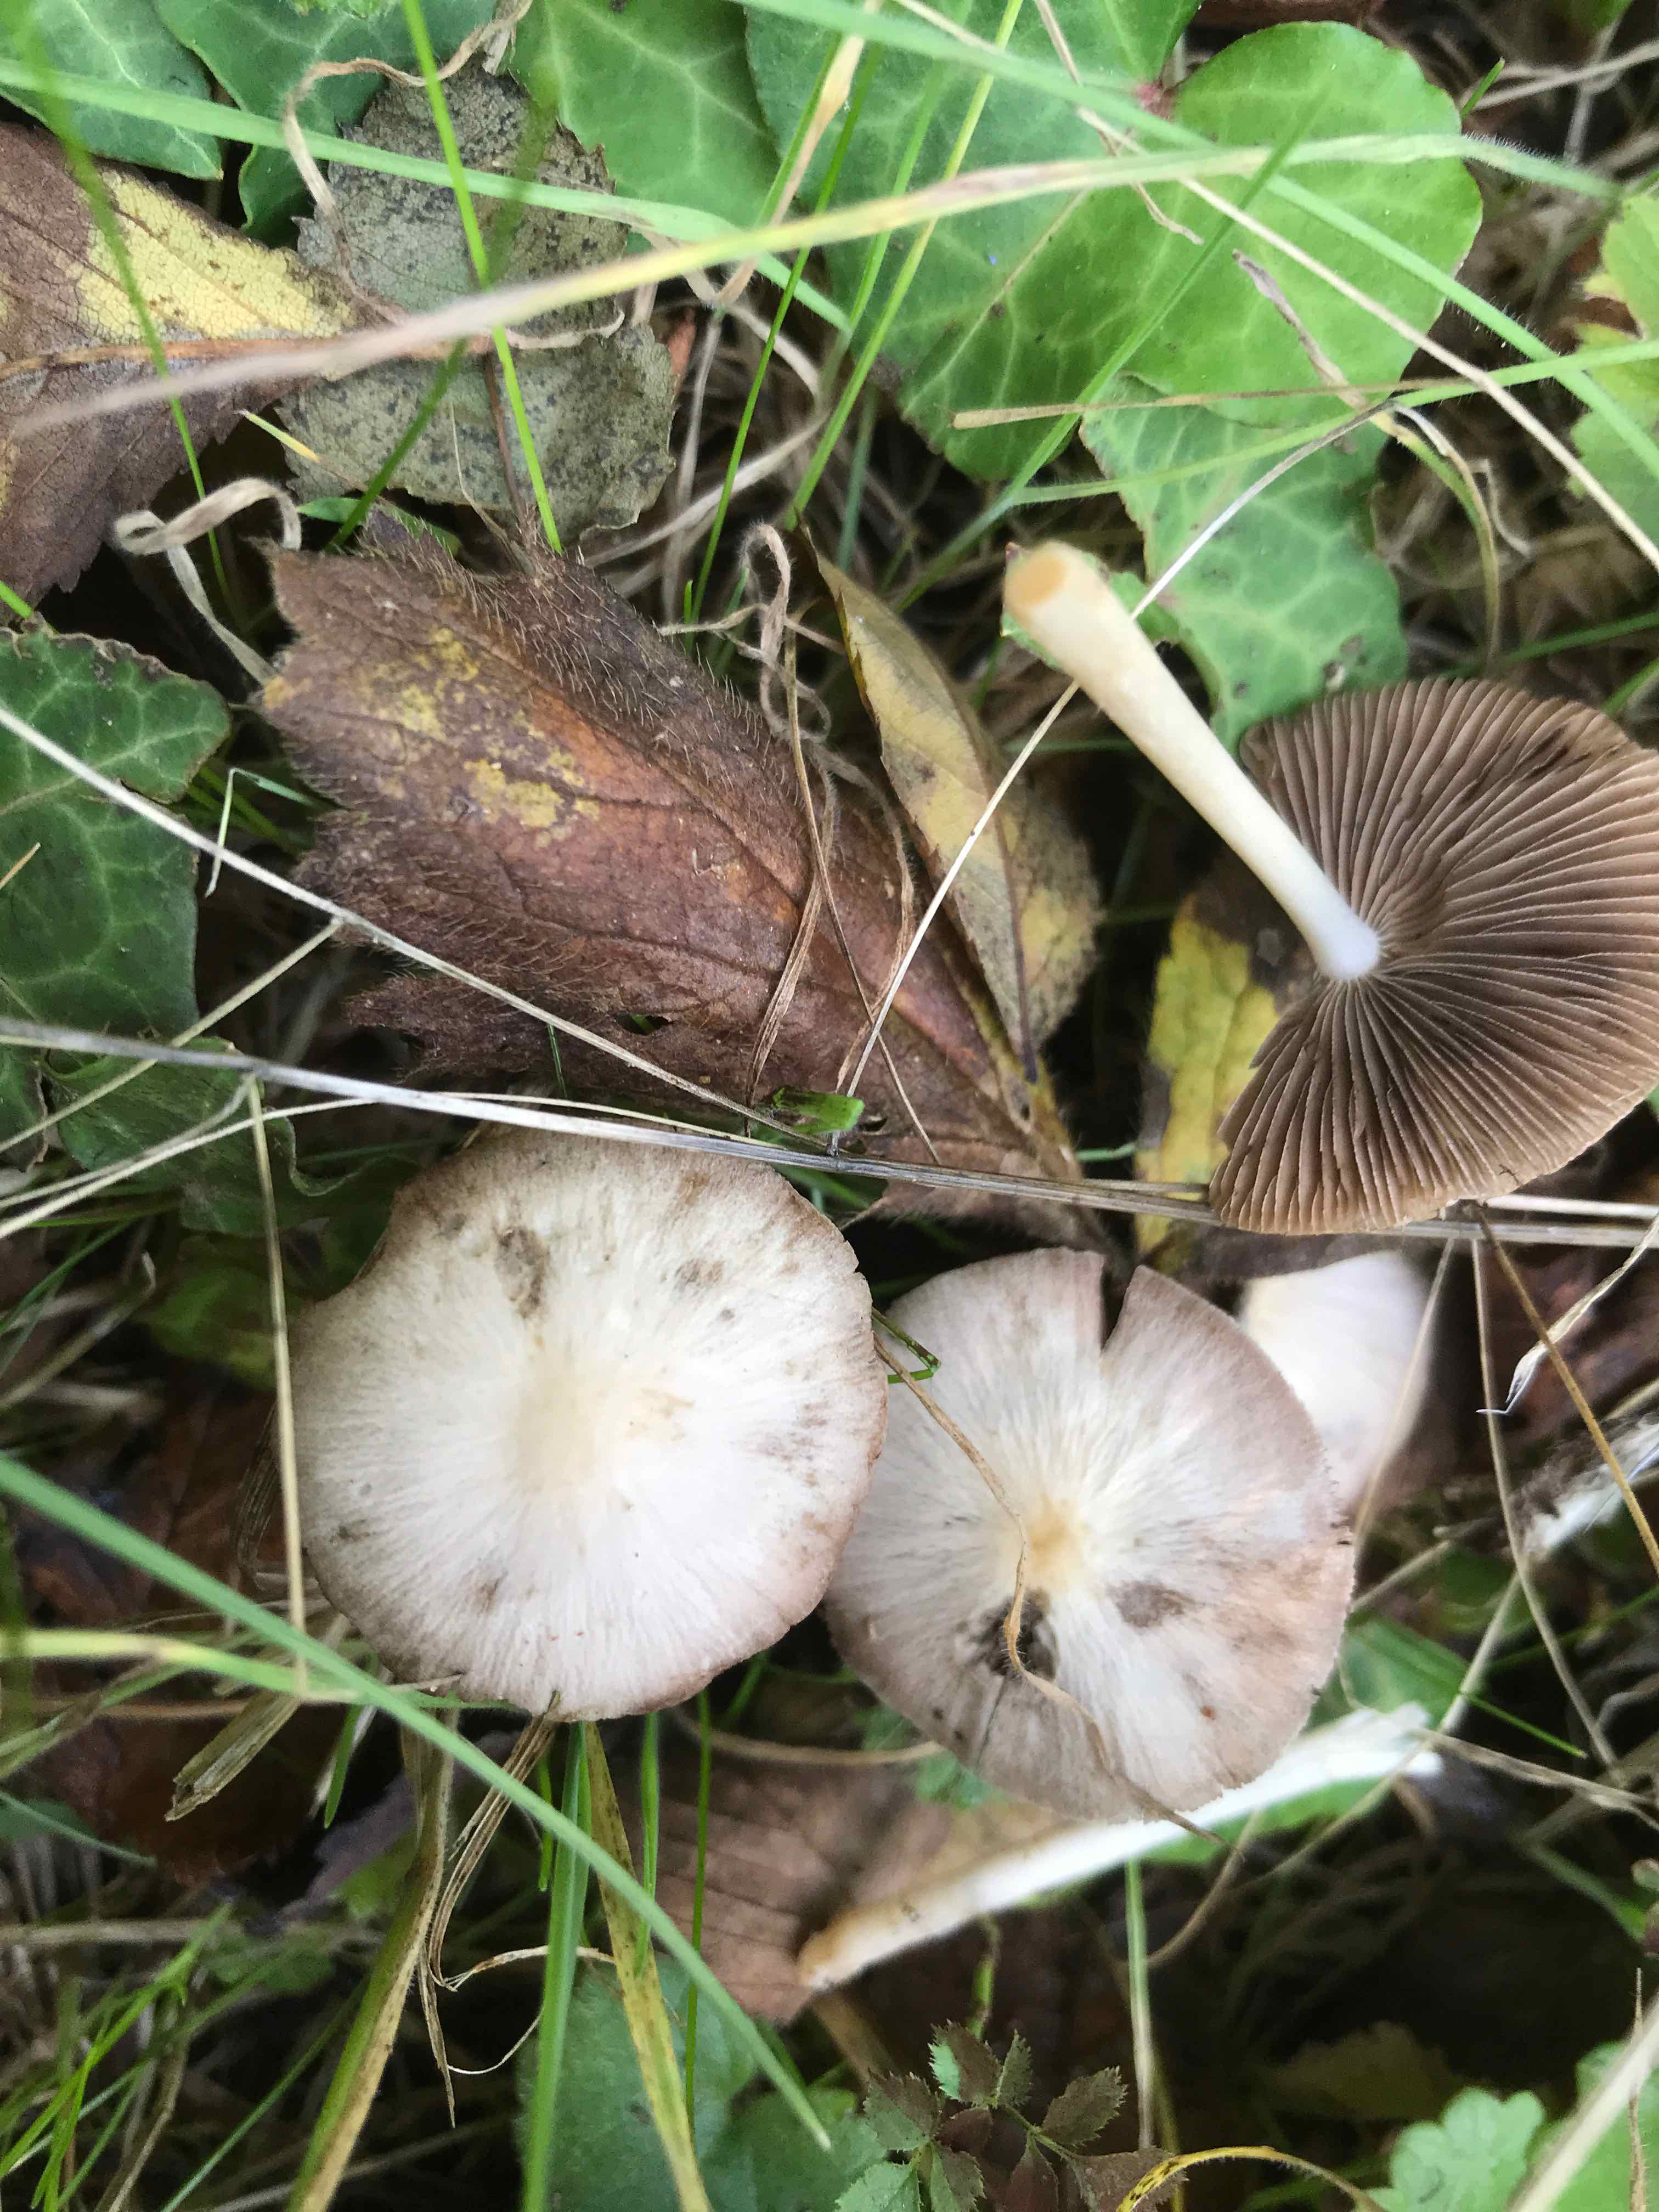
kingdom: Fungi
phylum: Basidiomycota
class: Agaricomycetes
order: Agaricales
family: Bolbitiaceae
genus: Bolbitius
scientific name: Bolbitius titubans
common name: almindelig gulhat
